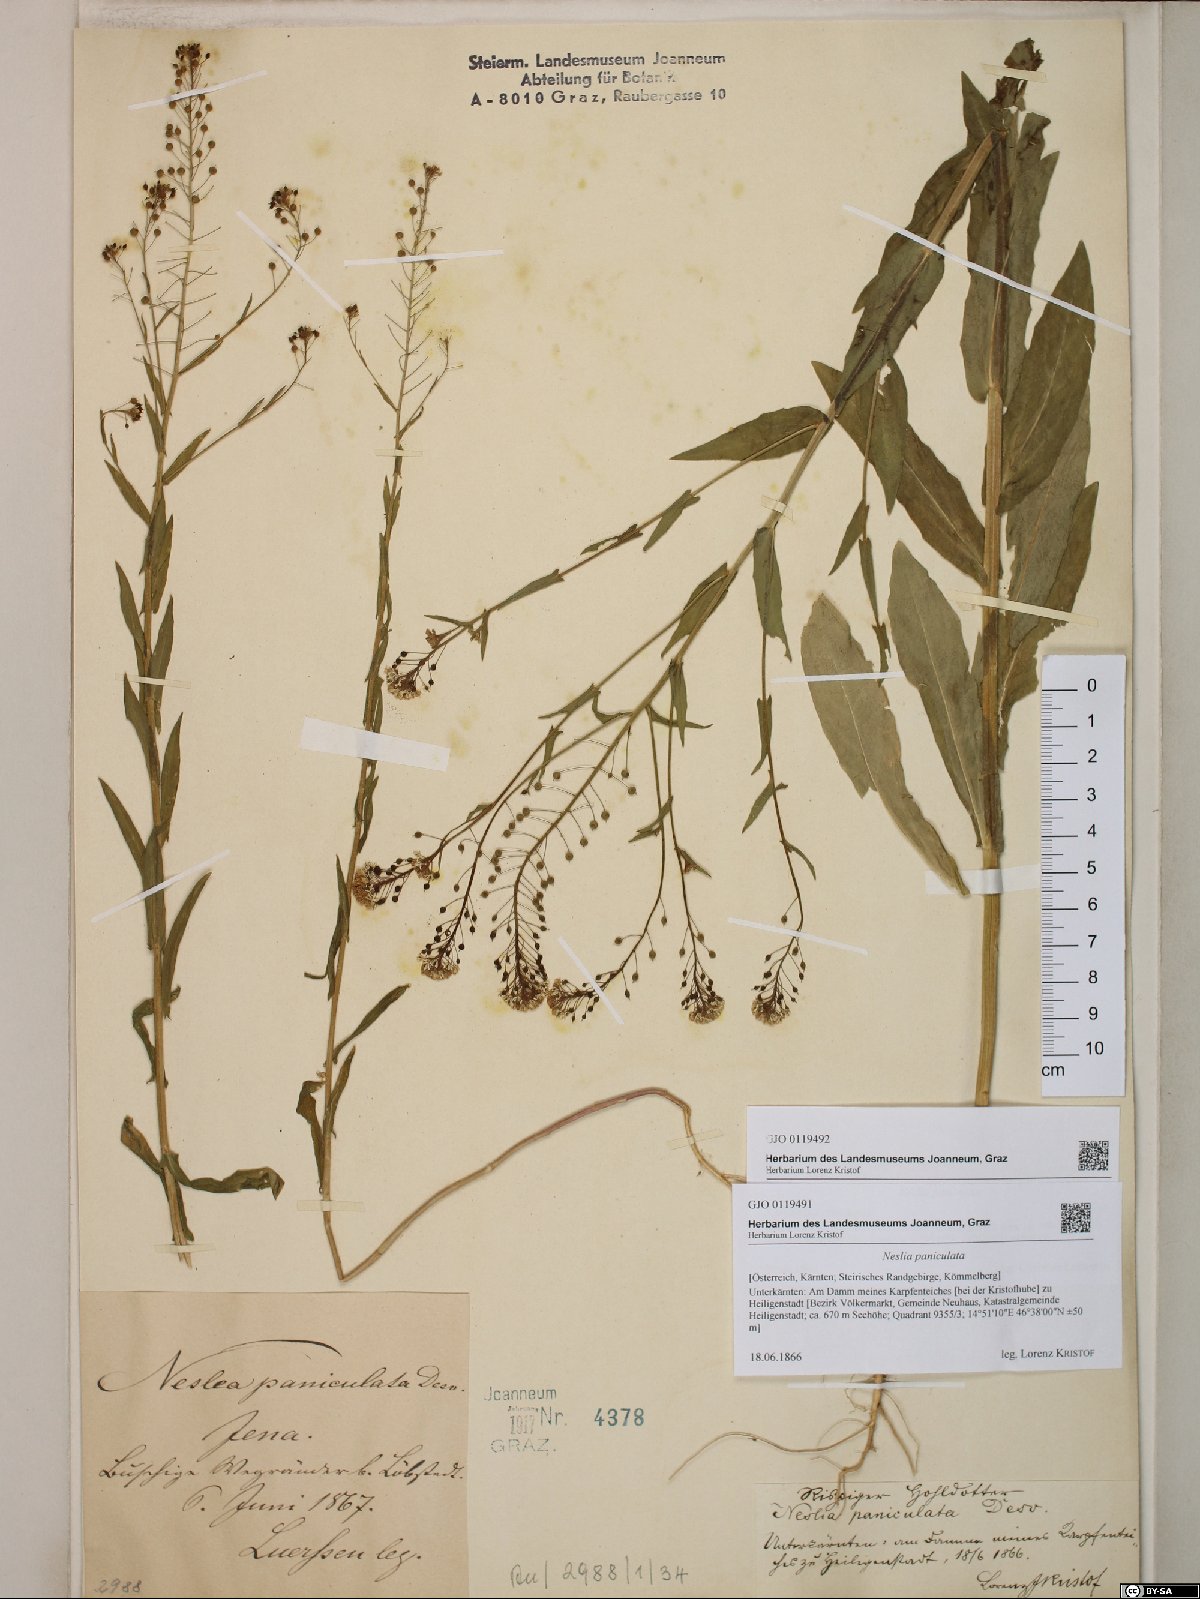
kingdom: Plantae
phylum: Tracheophyta
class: Magnoliopsida
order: Brassicales
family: Brassicaceae
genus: Neslia
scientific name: Neslia paniculata
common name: Ball mustard
